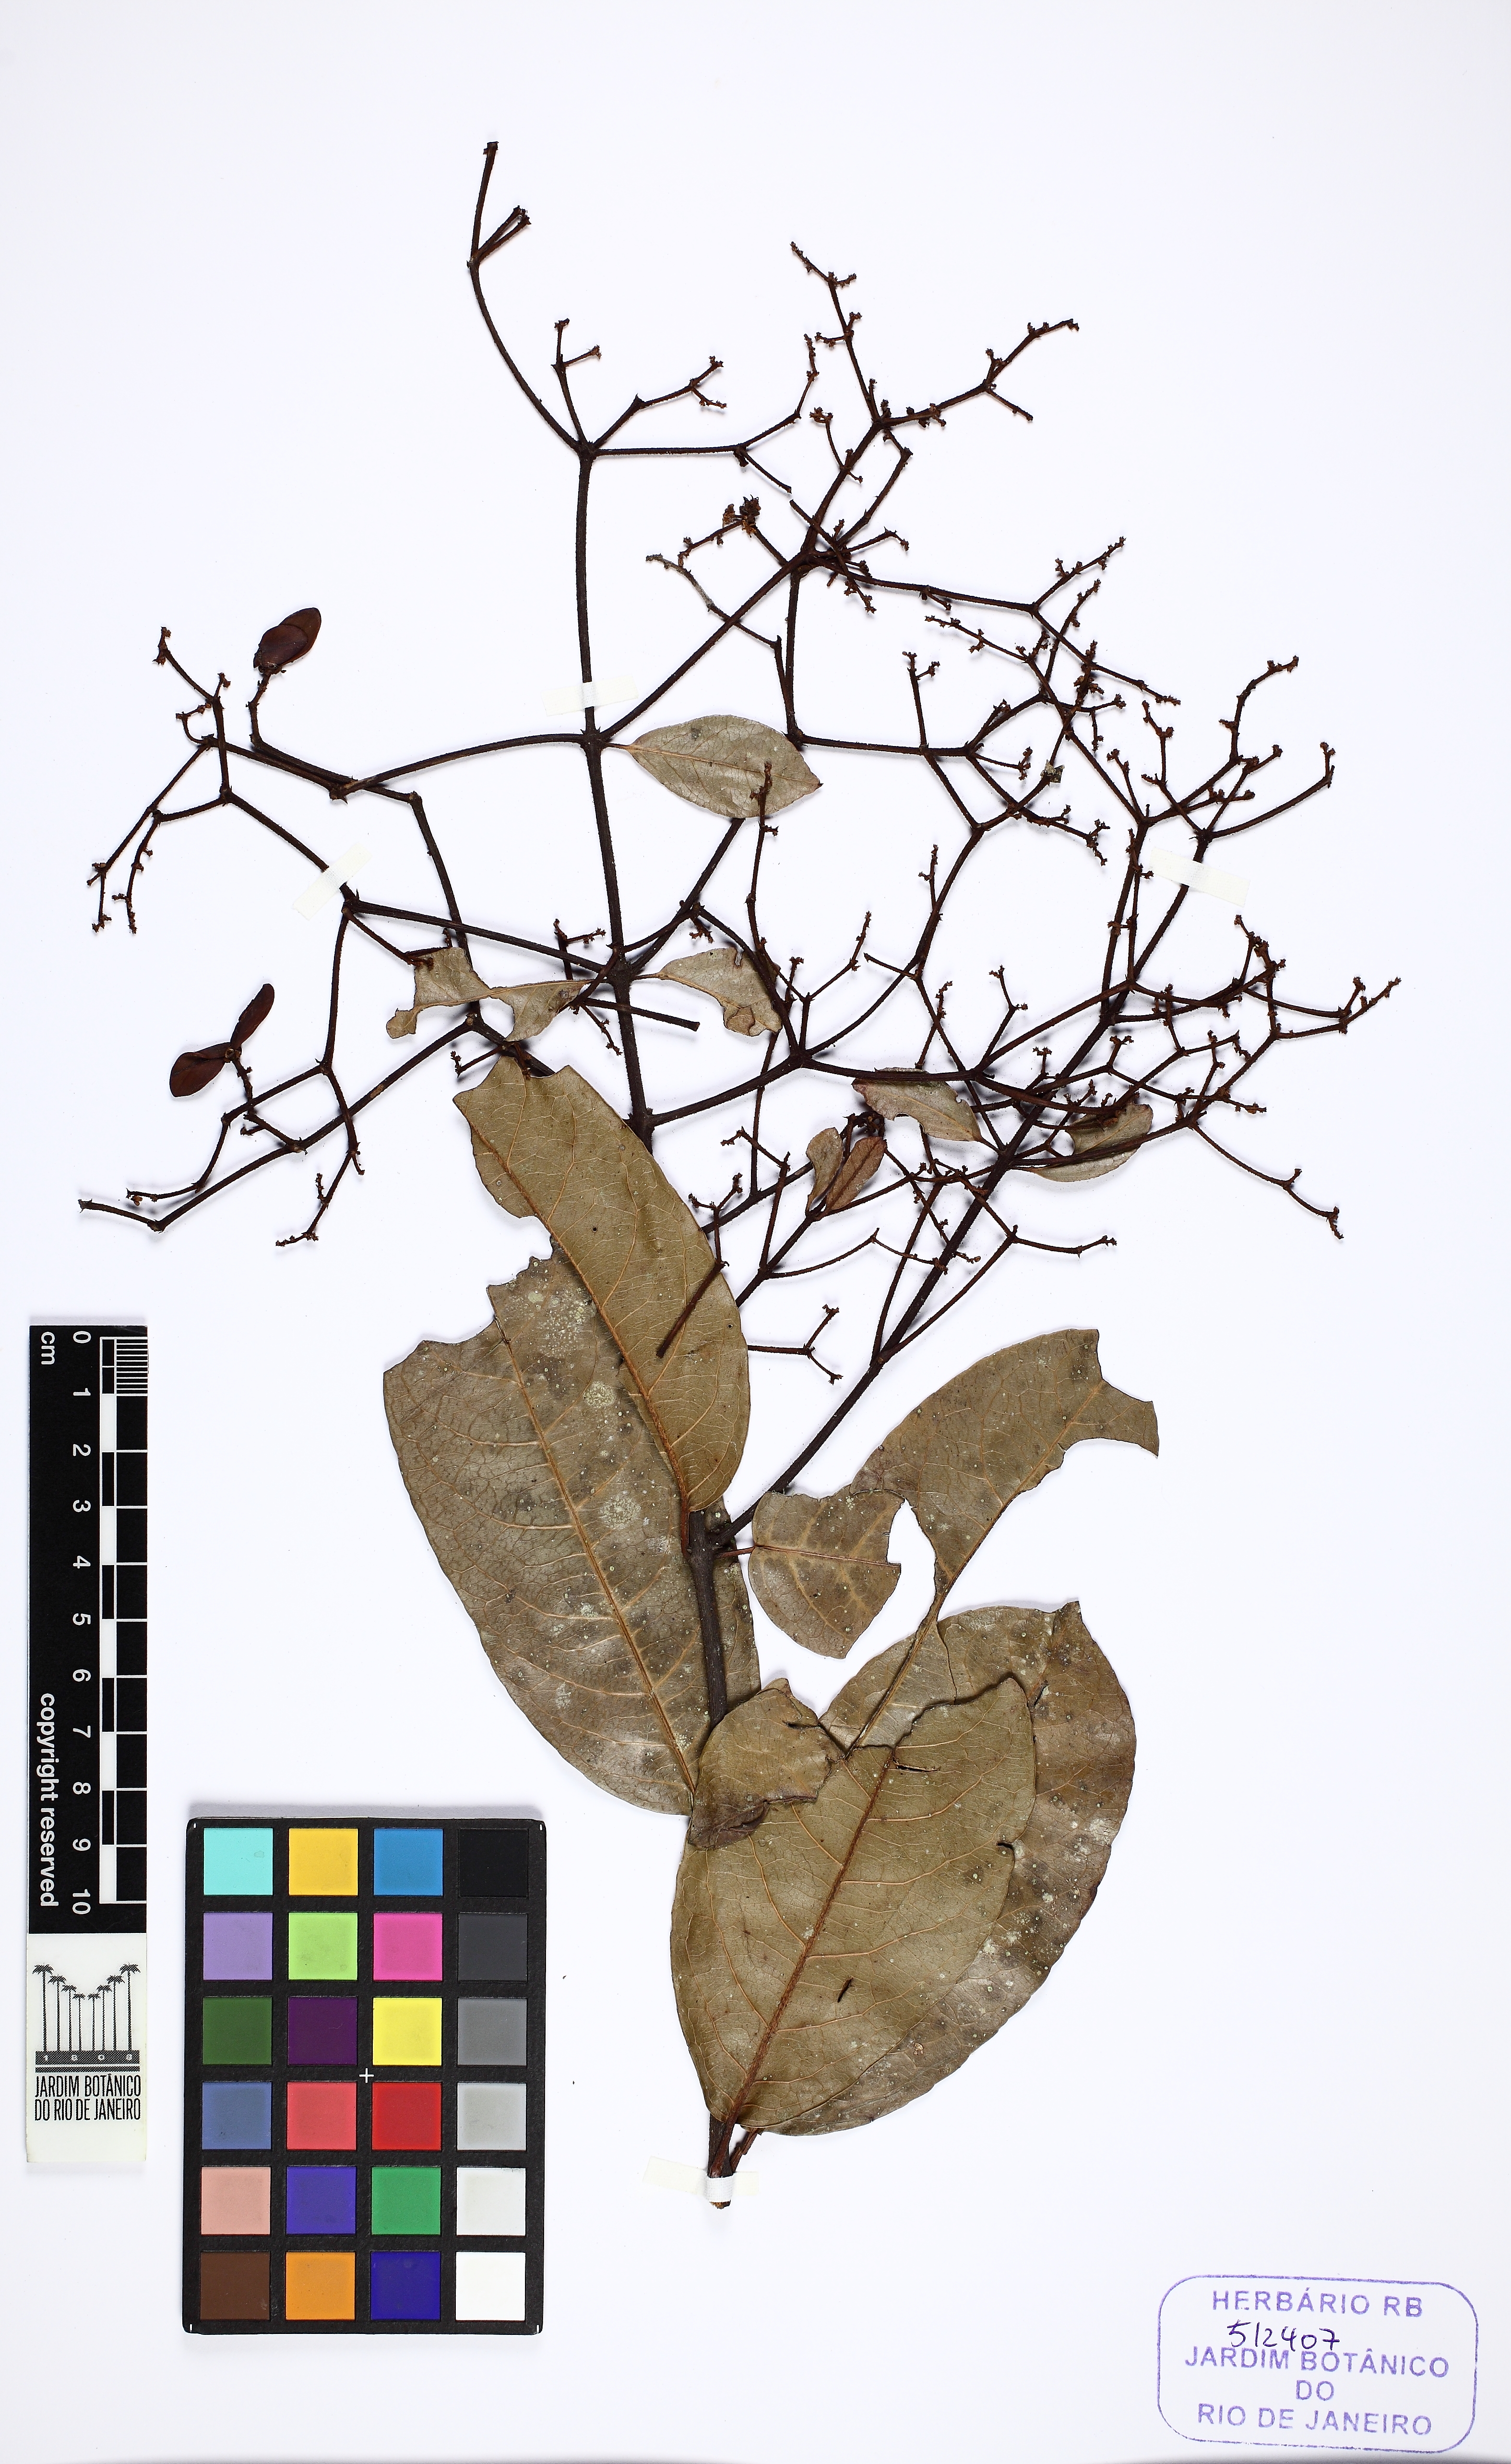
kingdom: Plantae
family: Hippocrateaceae
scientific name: Hippocrateaceae
